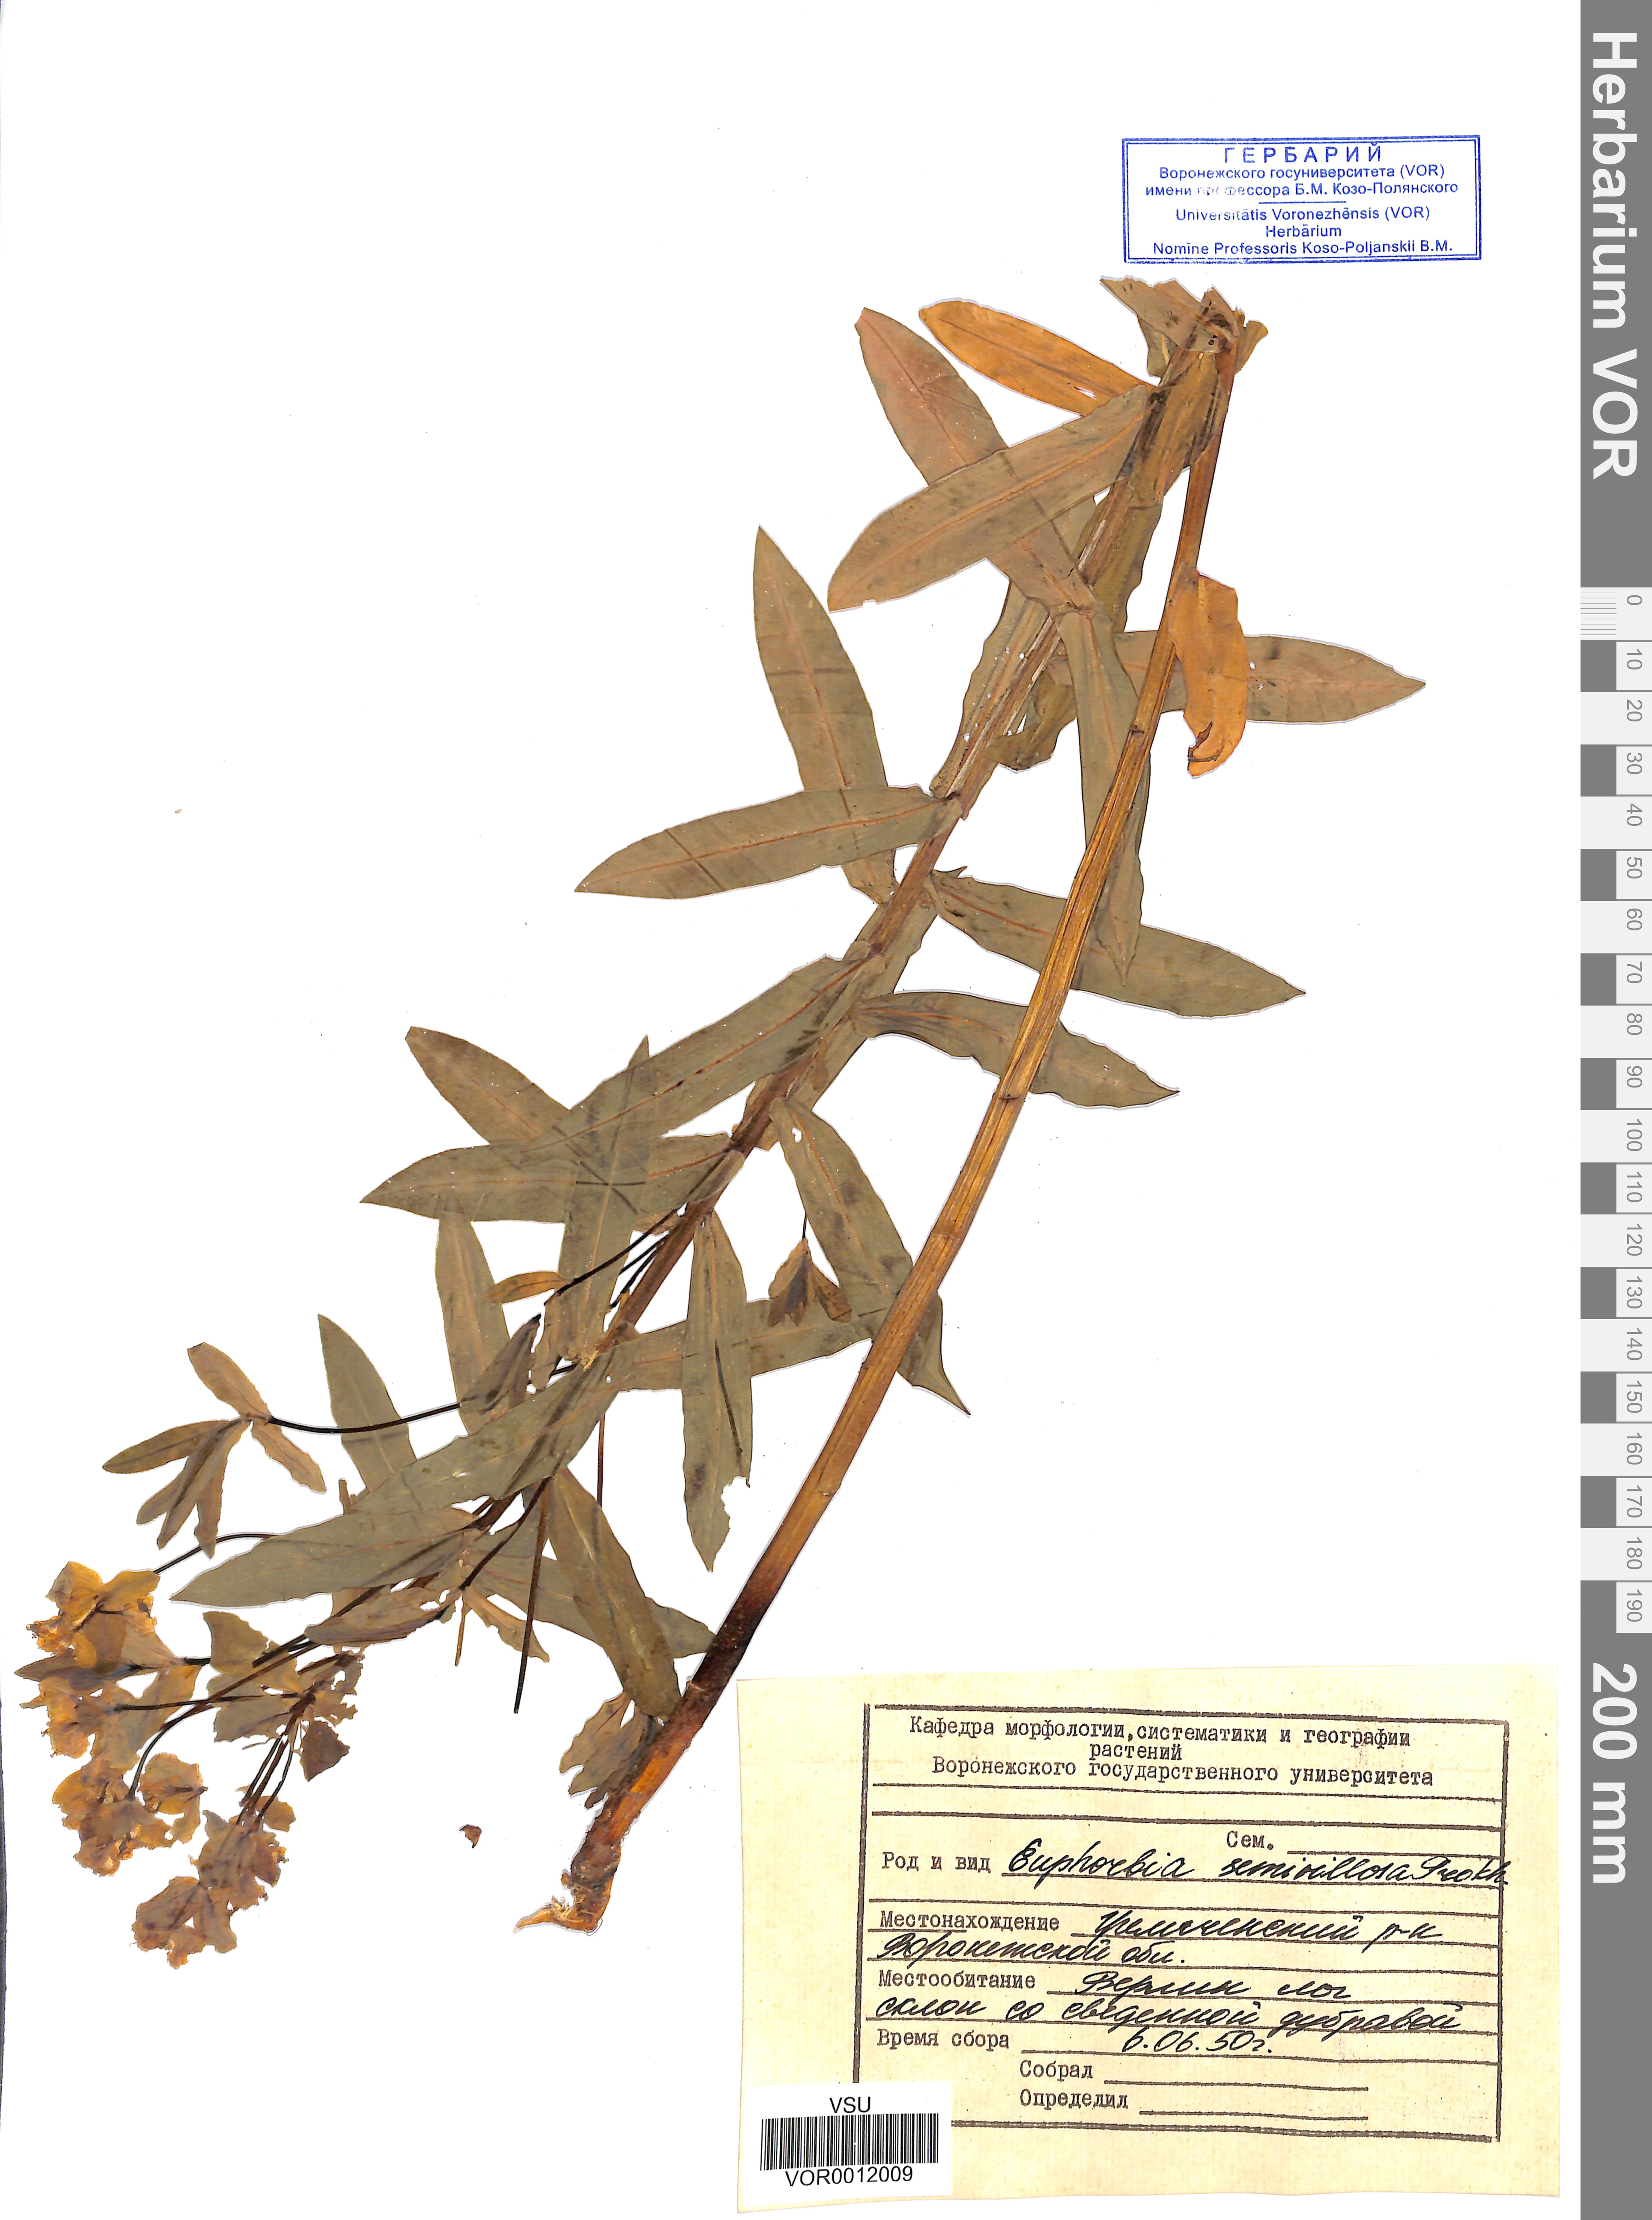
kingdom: Plantae
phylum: Tracheophyta
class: Magnoliopsida
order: Malpighiales
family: Euphorbiaceae
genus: Euphorbia
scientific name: Euphorbia semivillosa
